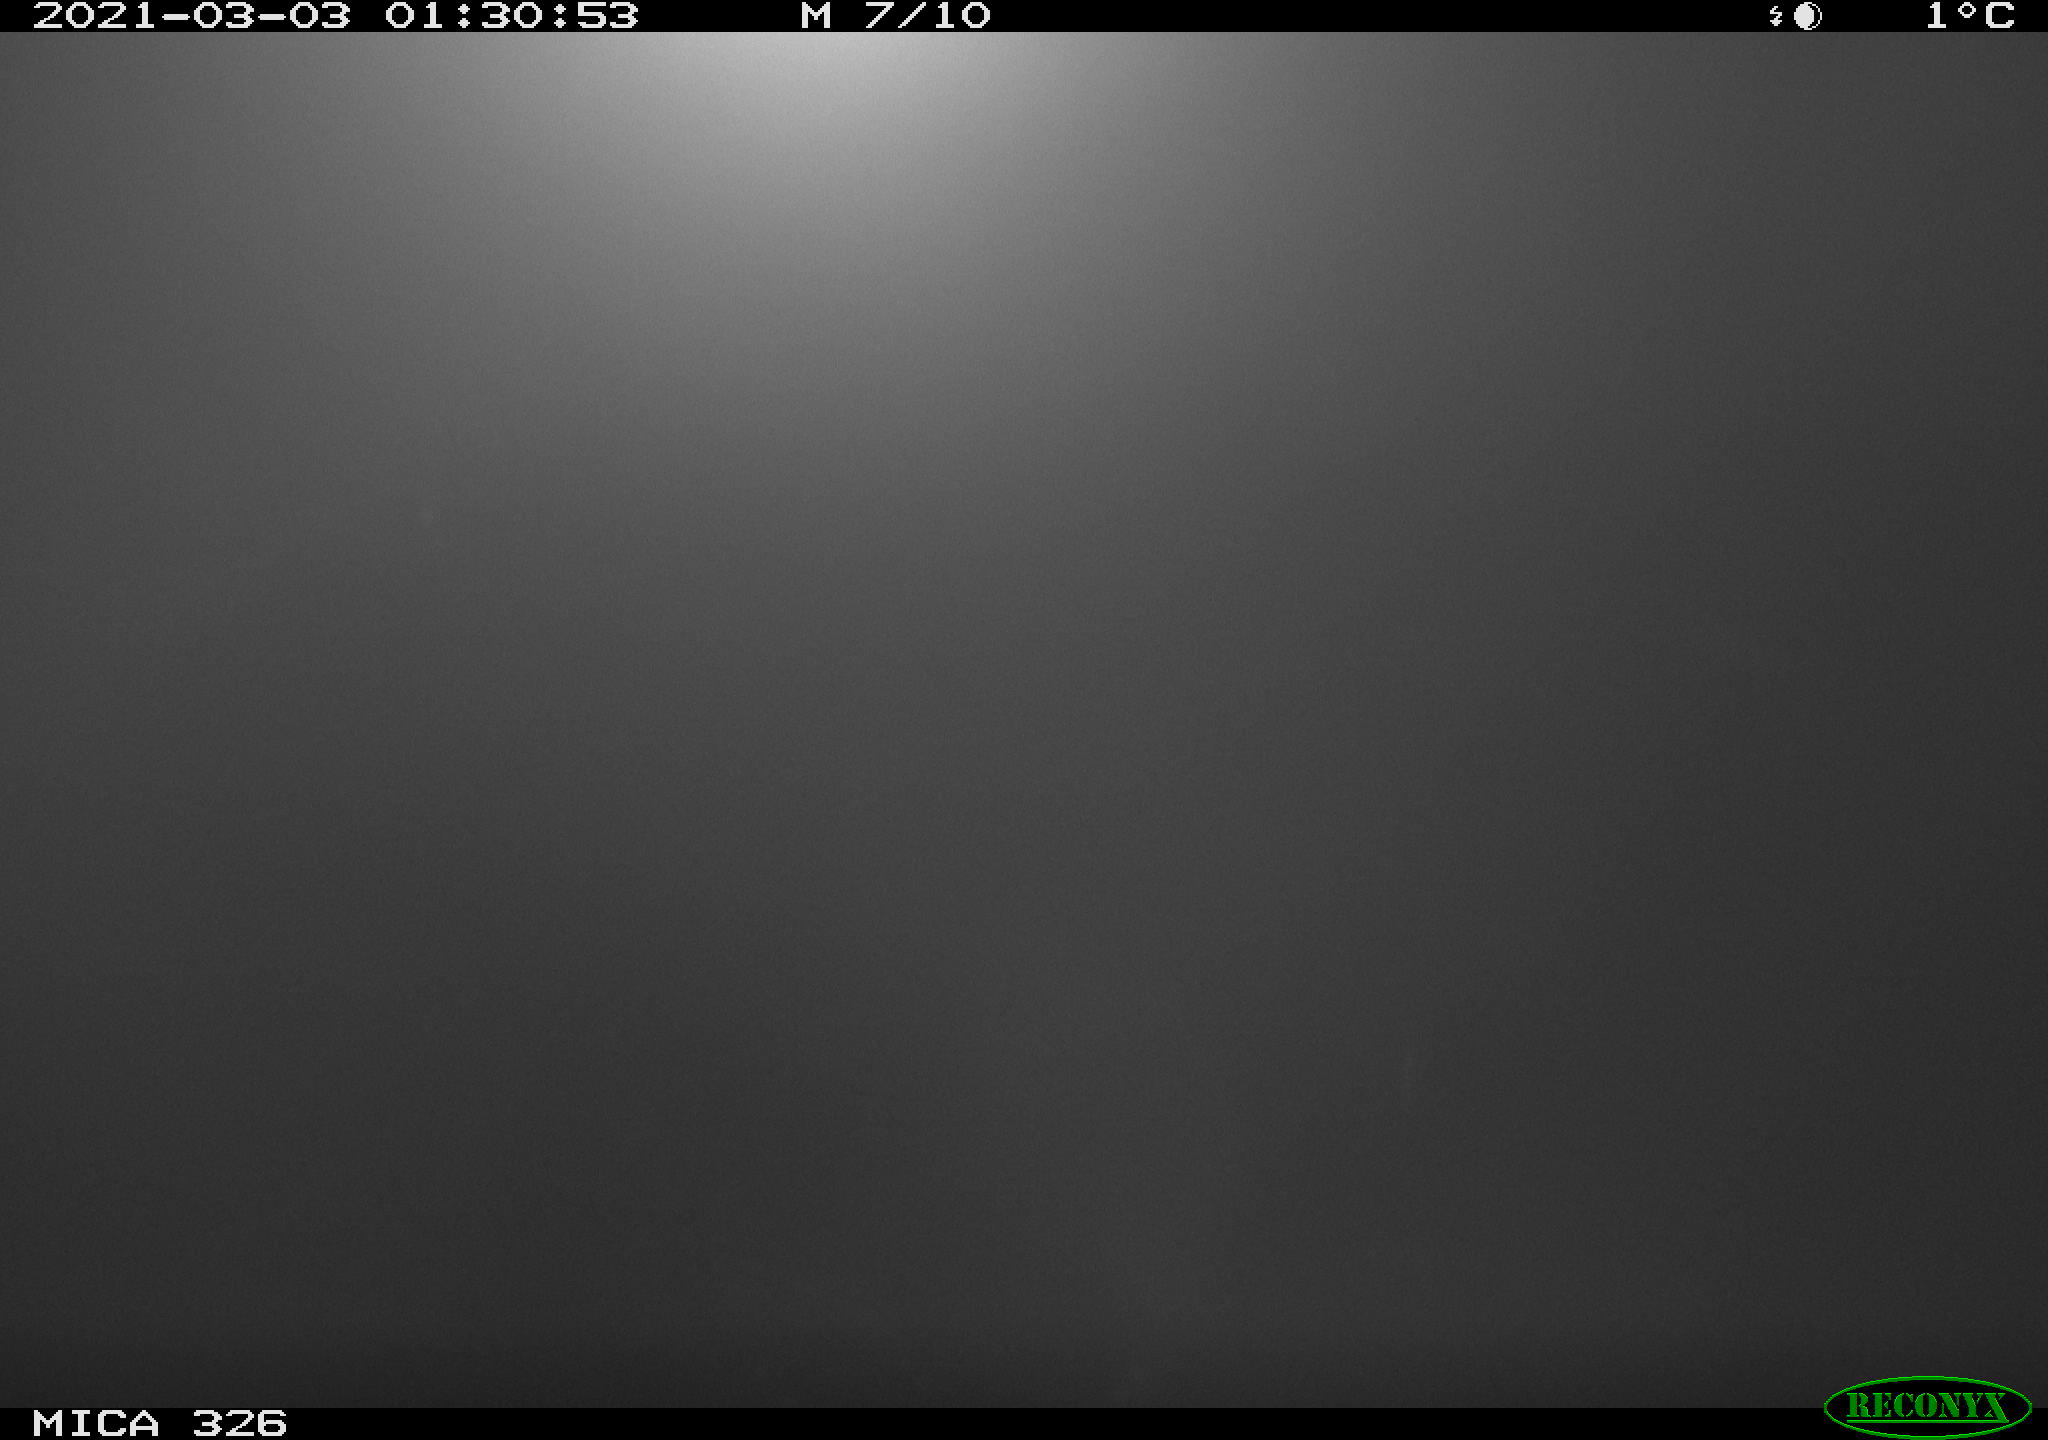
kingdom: Animalia
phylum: Chordata
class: Mammalia
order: Carnivora
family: Mustelidae
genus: Lutra
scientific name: Lutra lutra
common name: European otter
